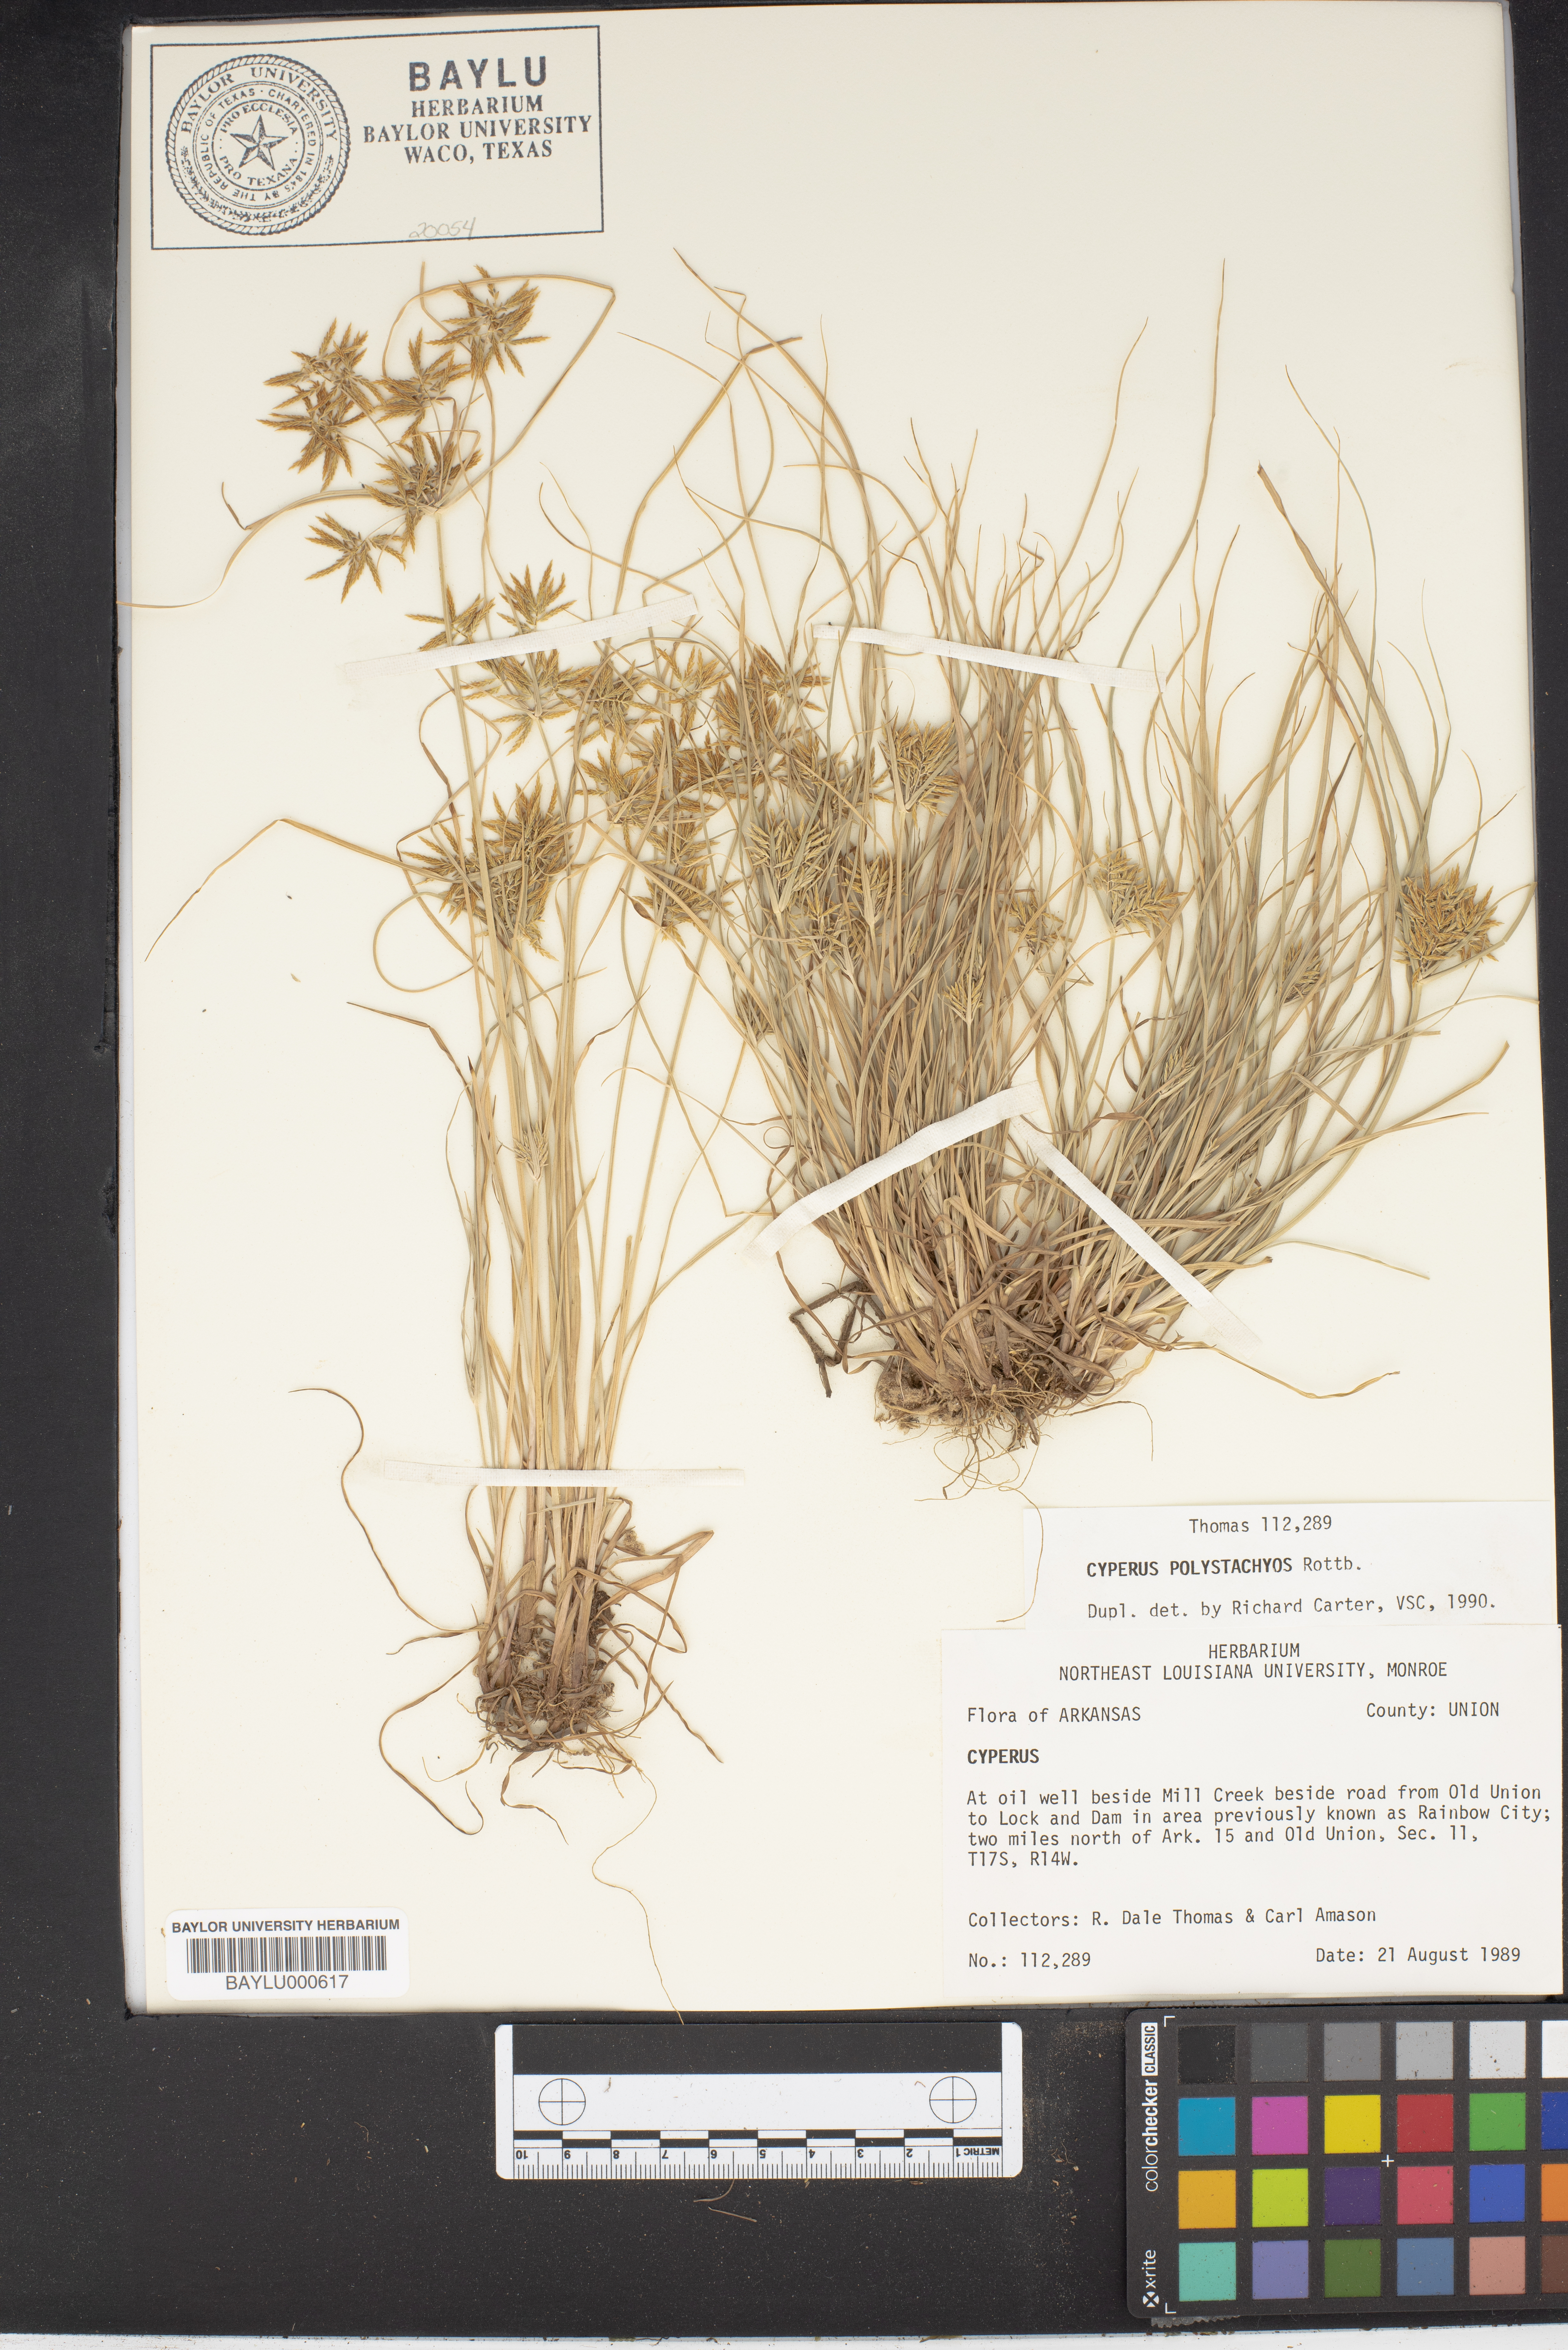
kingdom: Plantae
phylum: Tracheophyta
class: Liliopsida
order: Poales
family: Cyperaceae
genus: Cyperus
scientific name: Cyperus polystachyos
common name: Bunchy flat sedge
